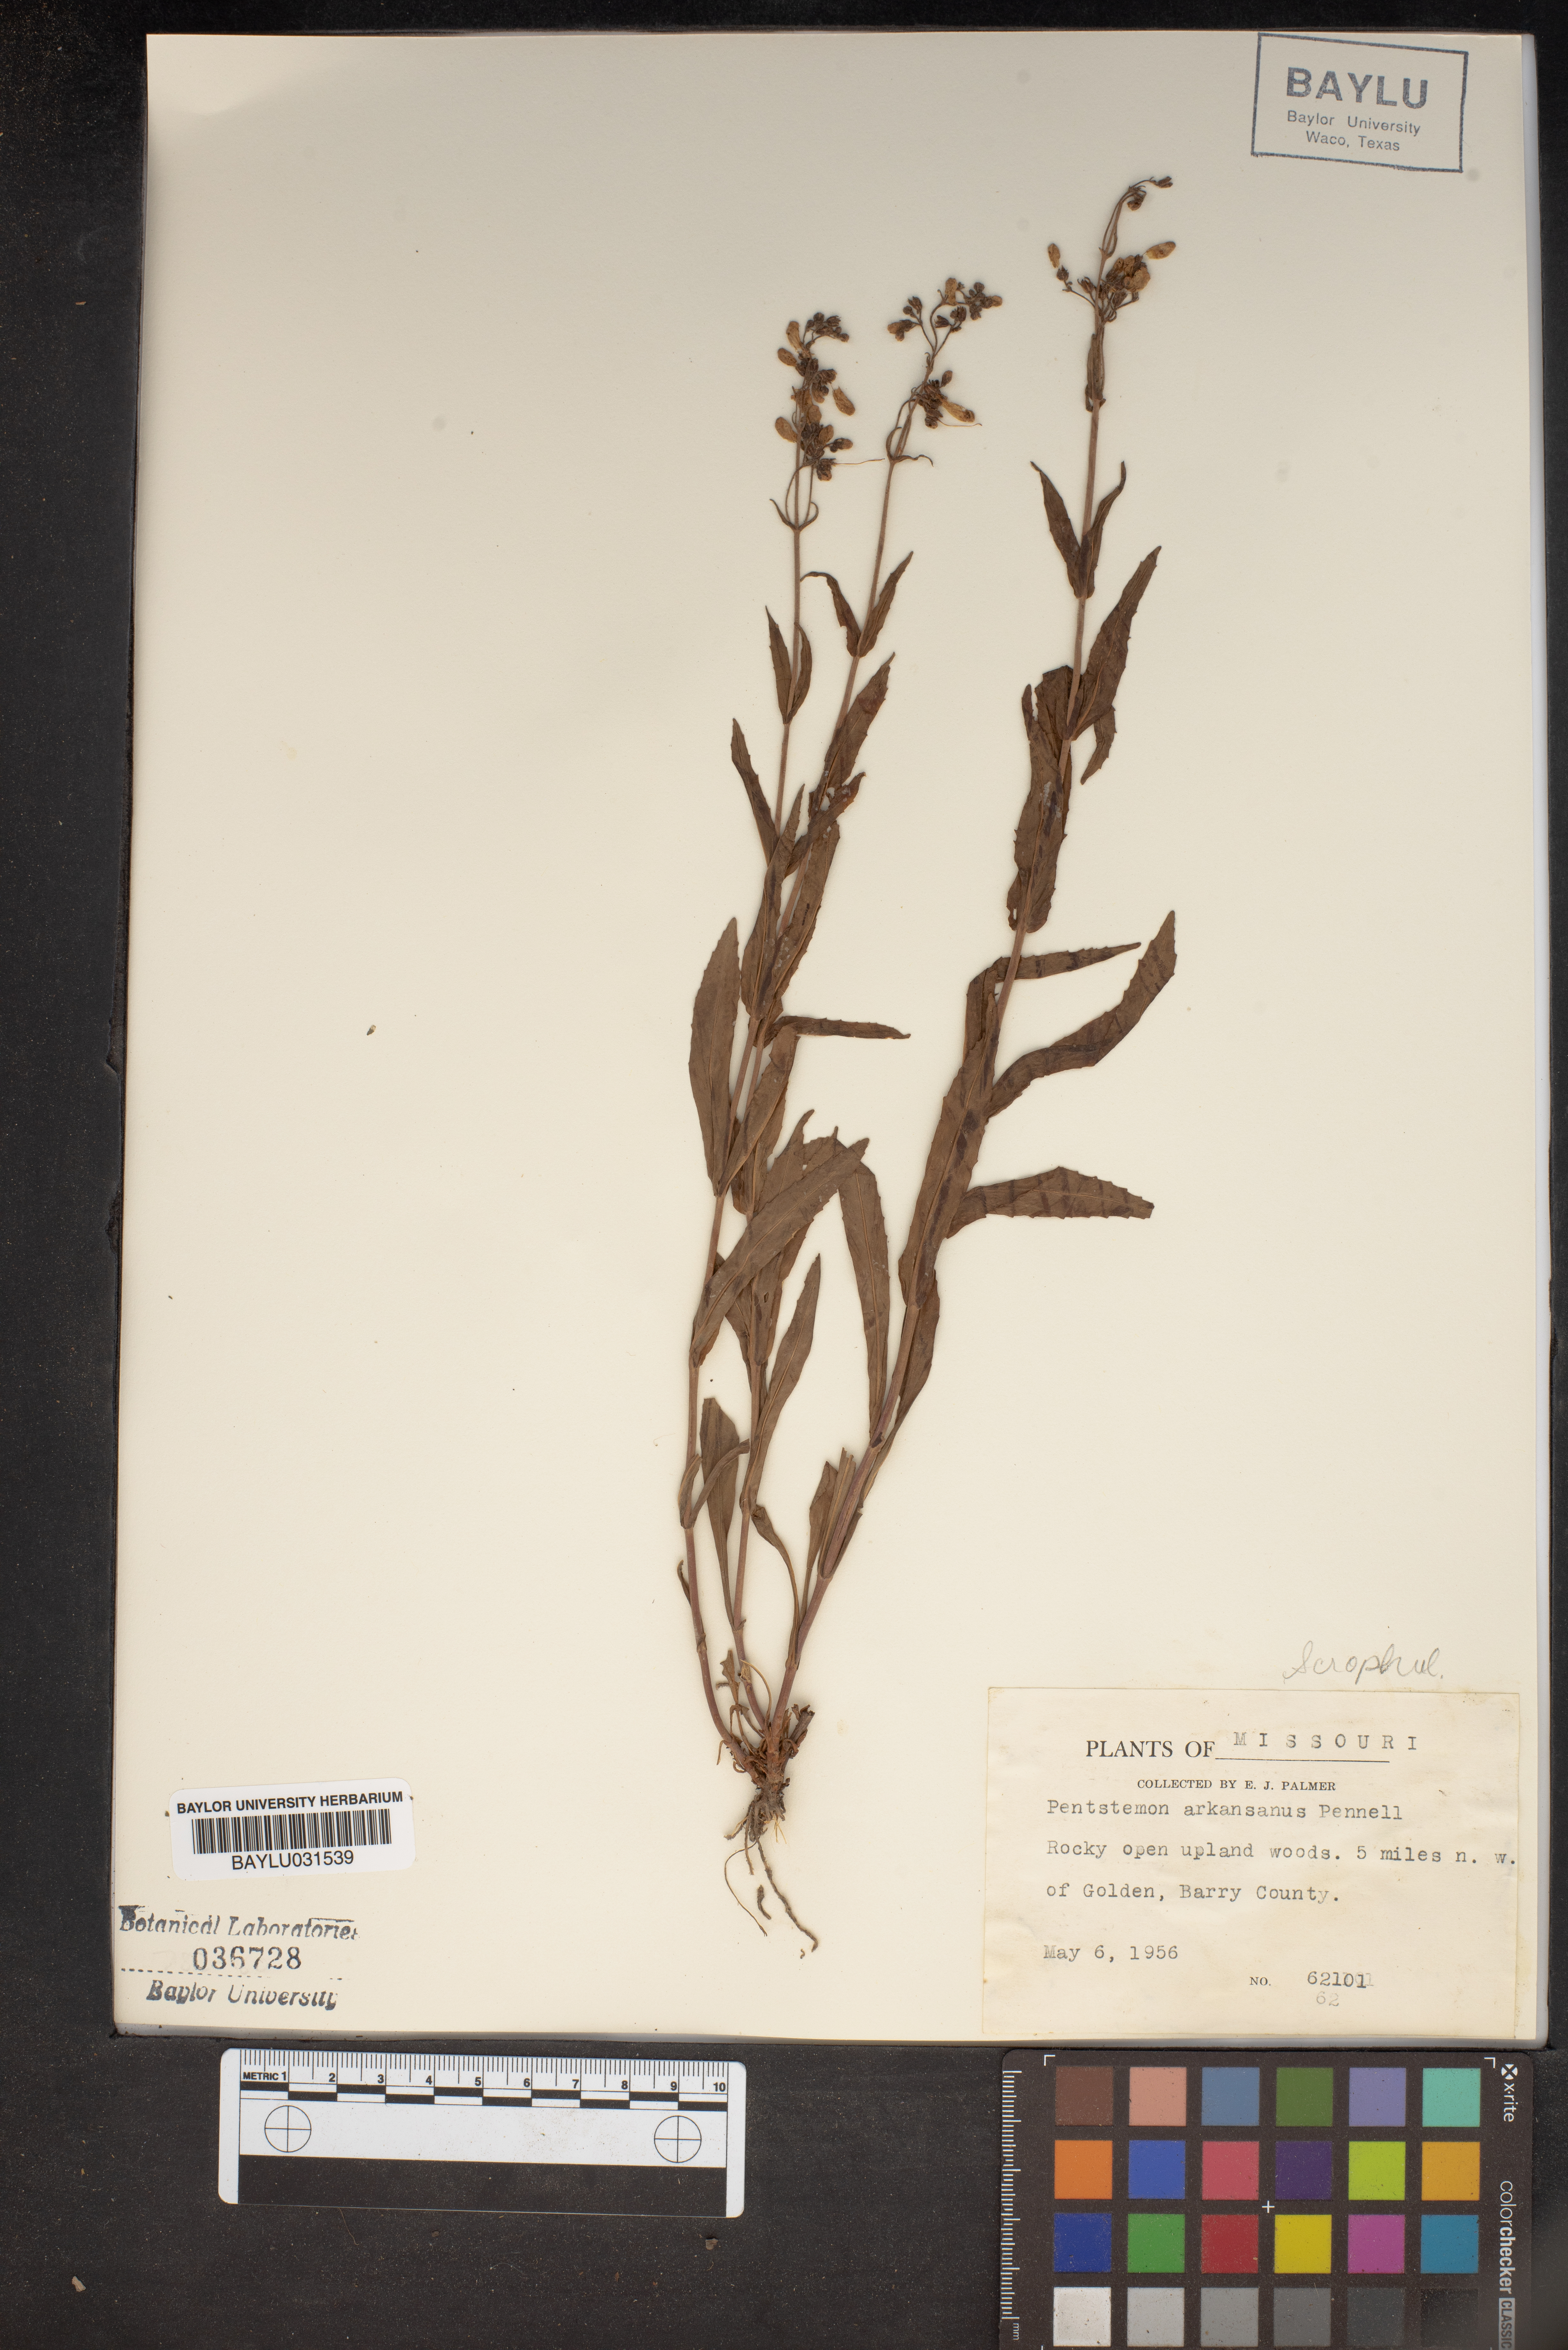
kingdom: Plantae
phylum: Tracheophyta
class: Magnoliopsida
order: Lamiales
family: Scrophulariaceae
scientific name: Scrophulariaceae
